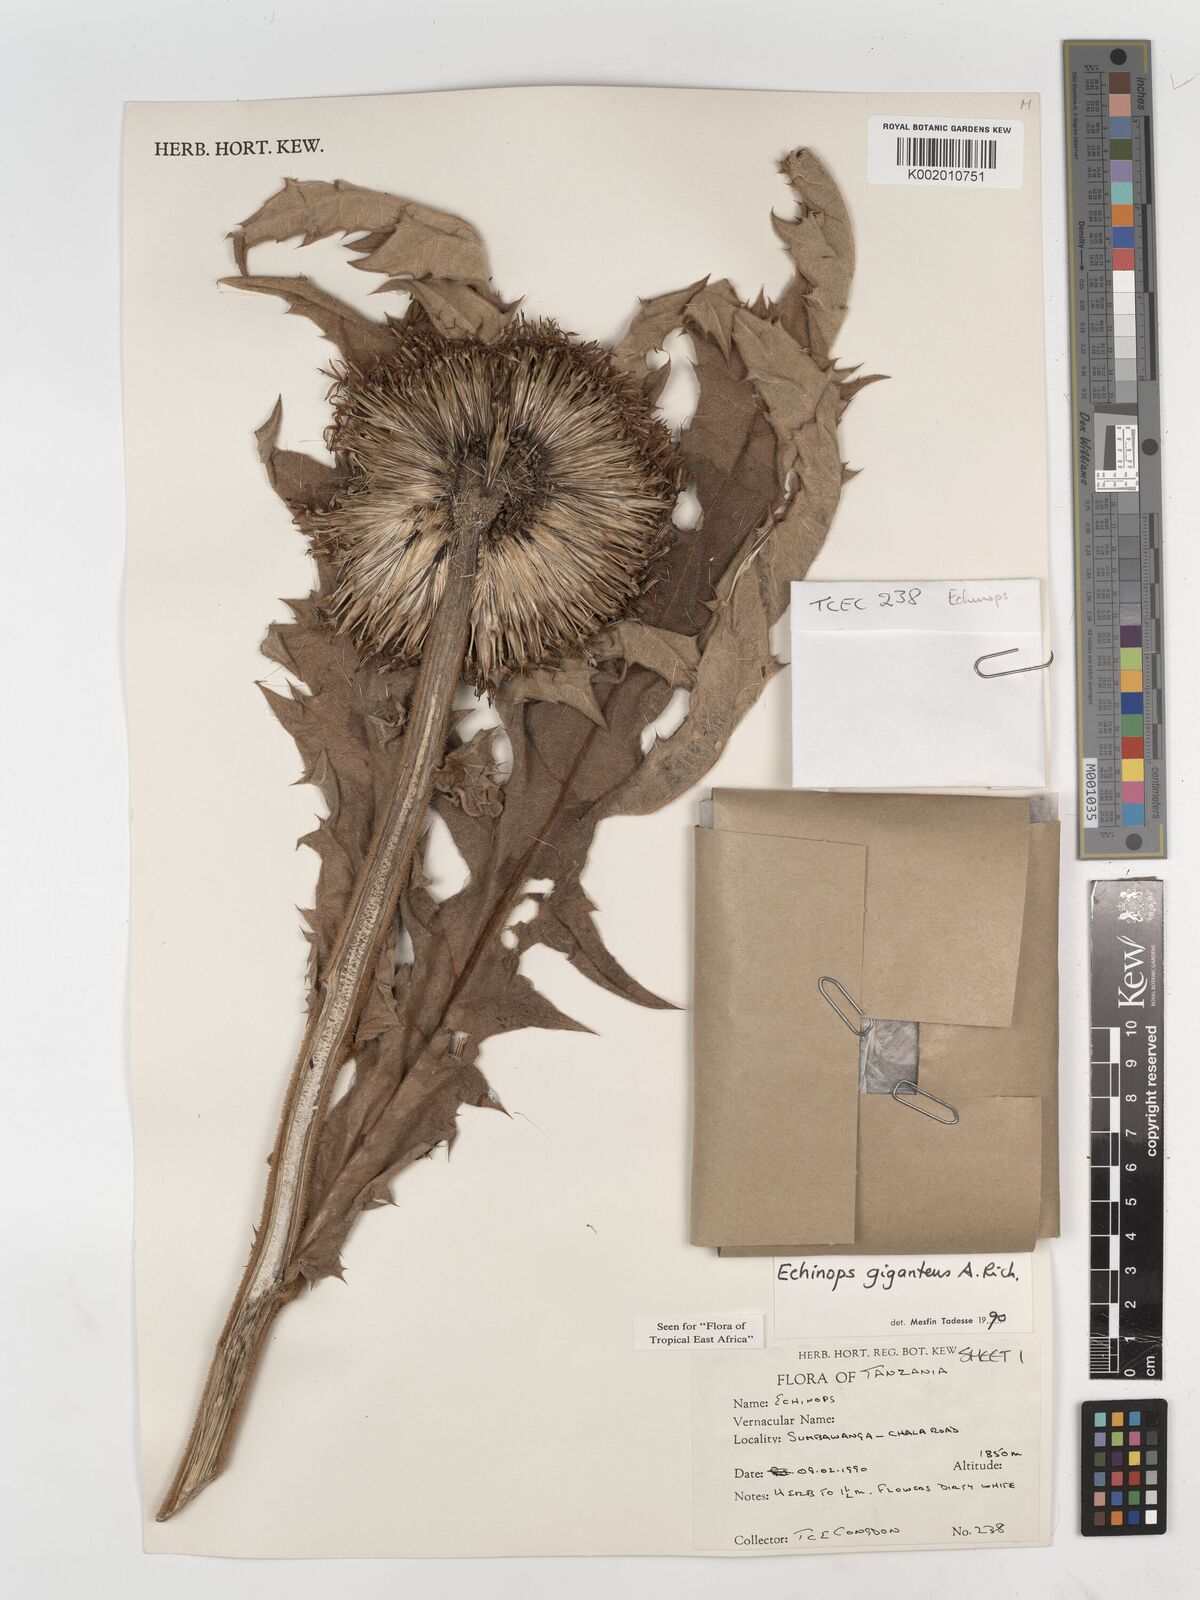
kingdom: Plantae
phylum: Tracheophyta
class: Magnoliopsida
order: Asterales
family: Asteraceae
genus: Echinops
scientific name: Echinops giganteus
